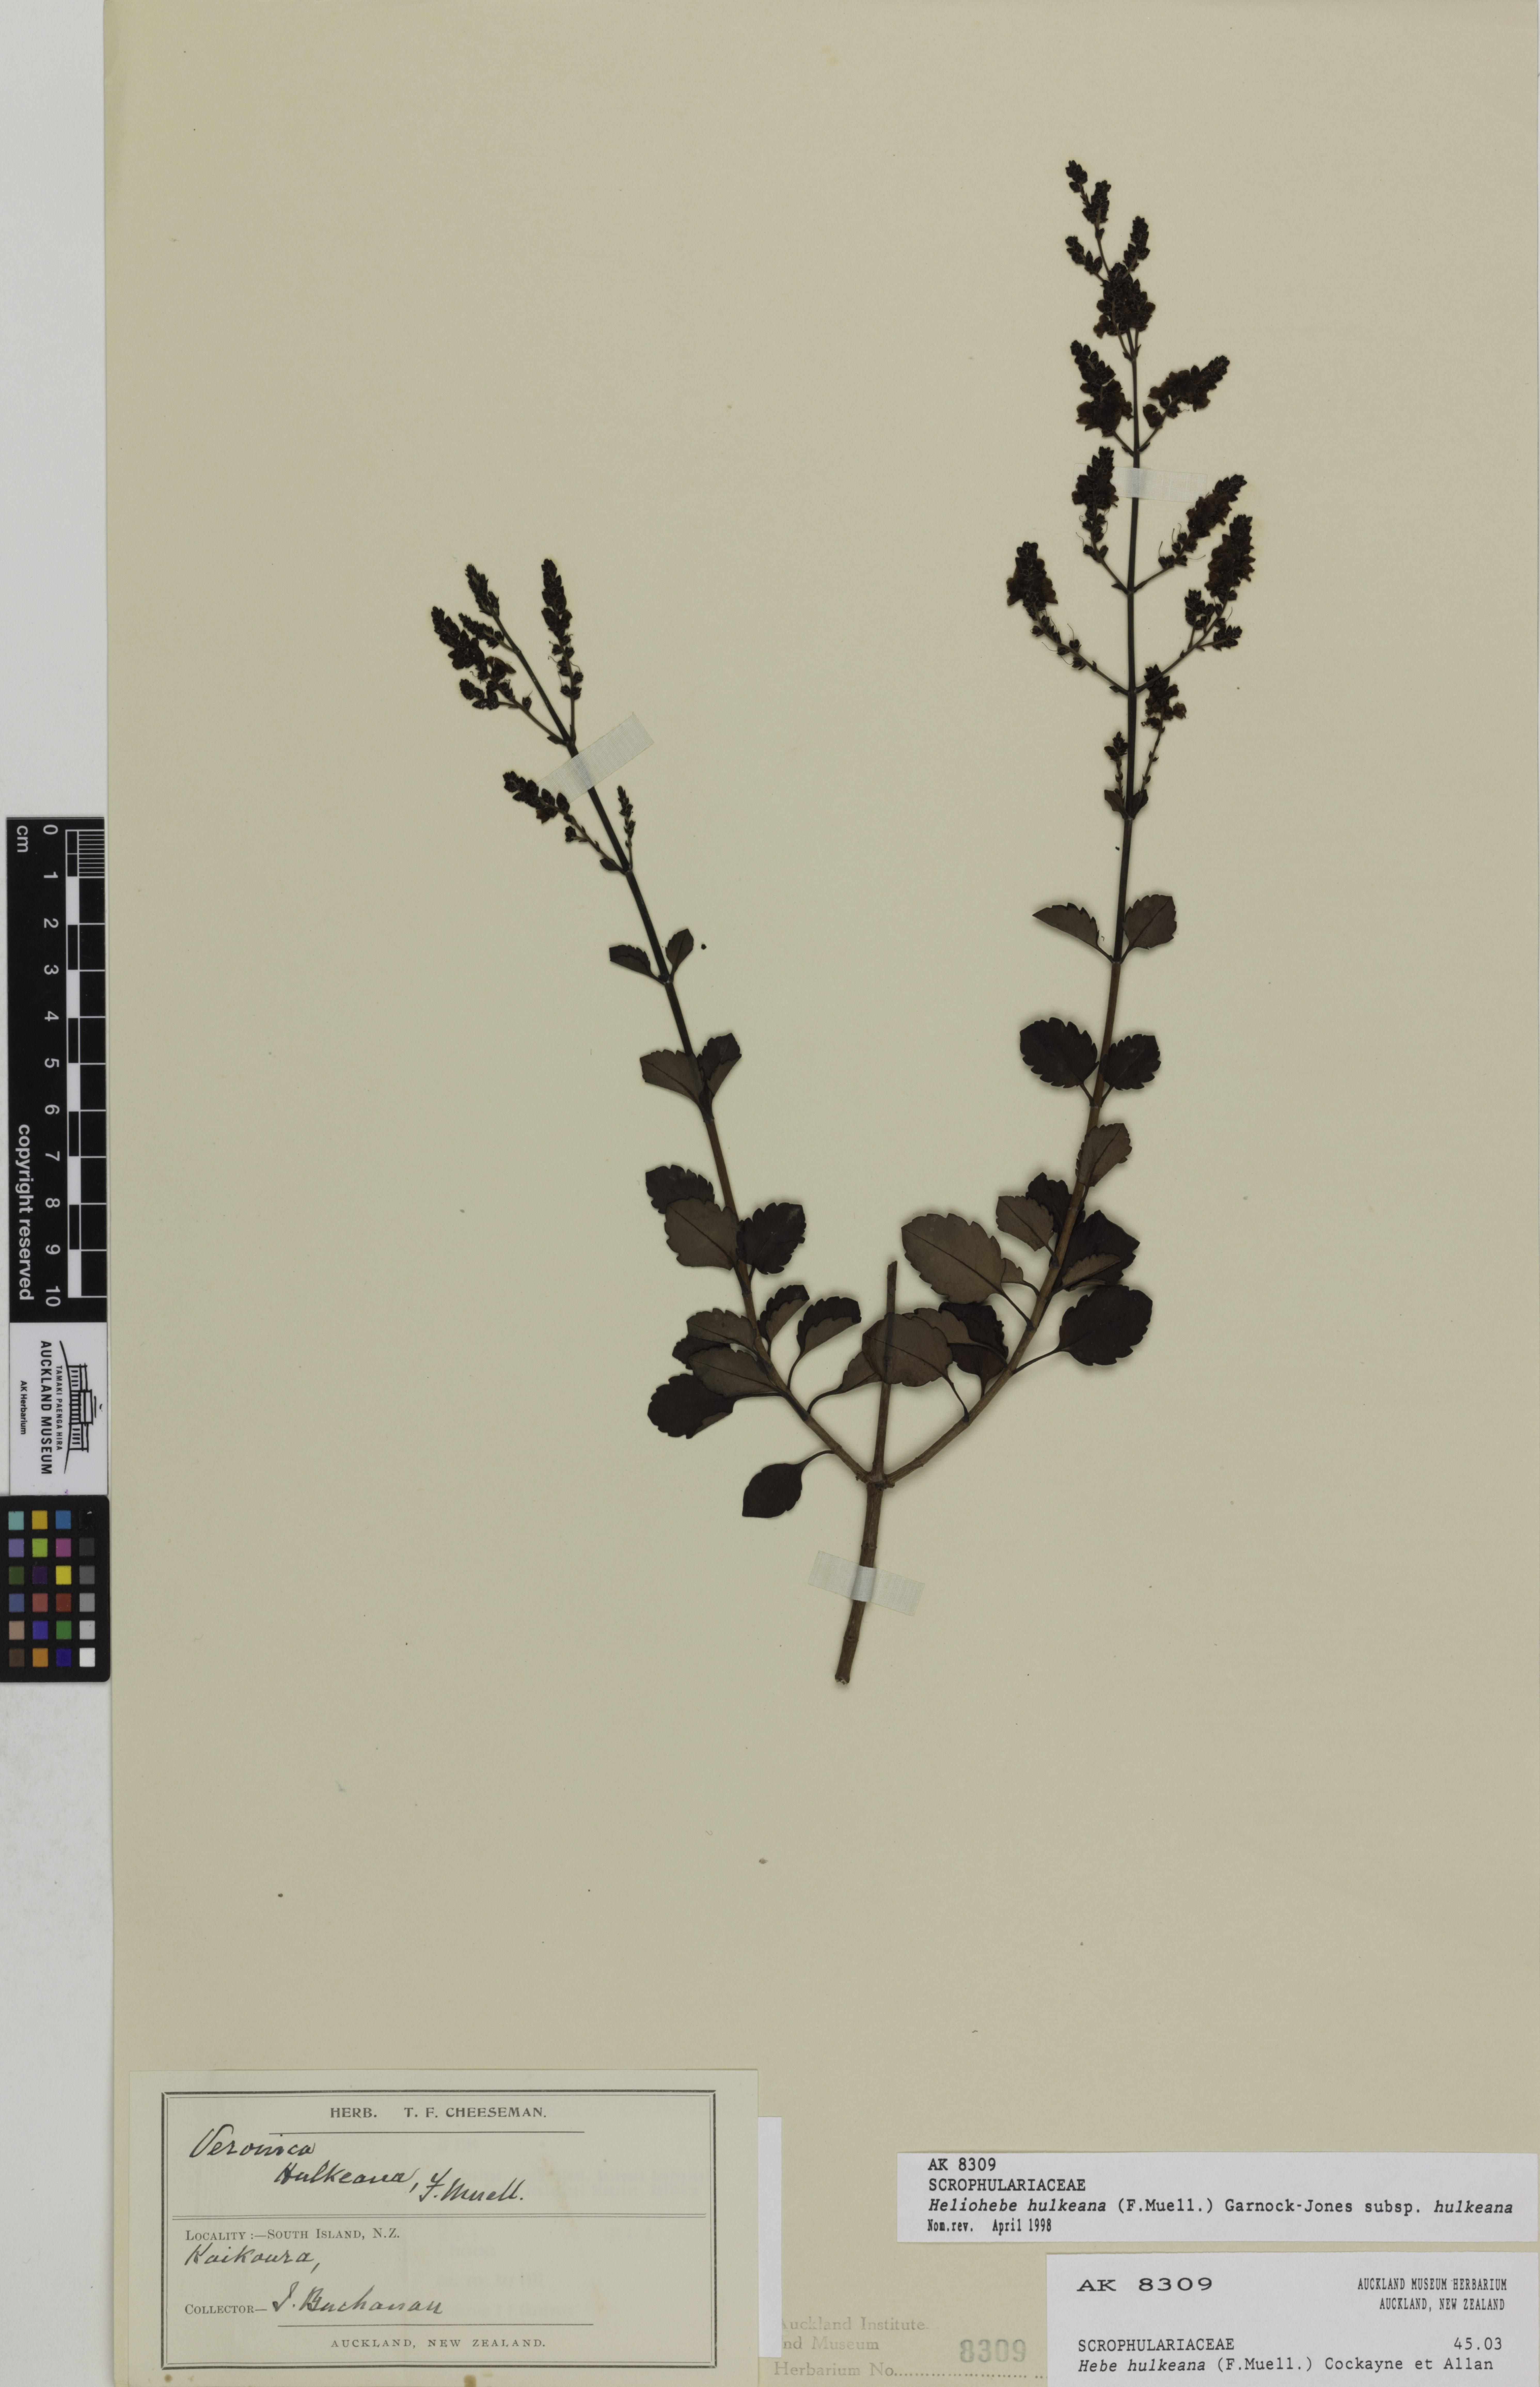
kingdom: Plantae
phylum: Tracheophyta
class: Magnoliopsida
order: Lamiales
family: Plantaginaceae
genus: Veronica
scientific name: Veronica hulkeana
